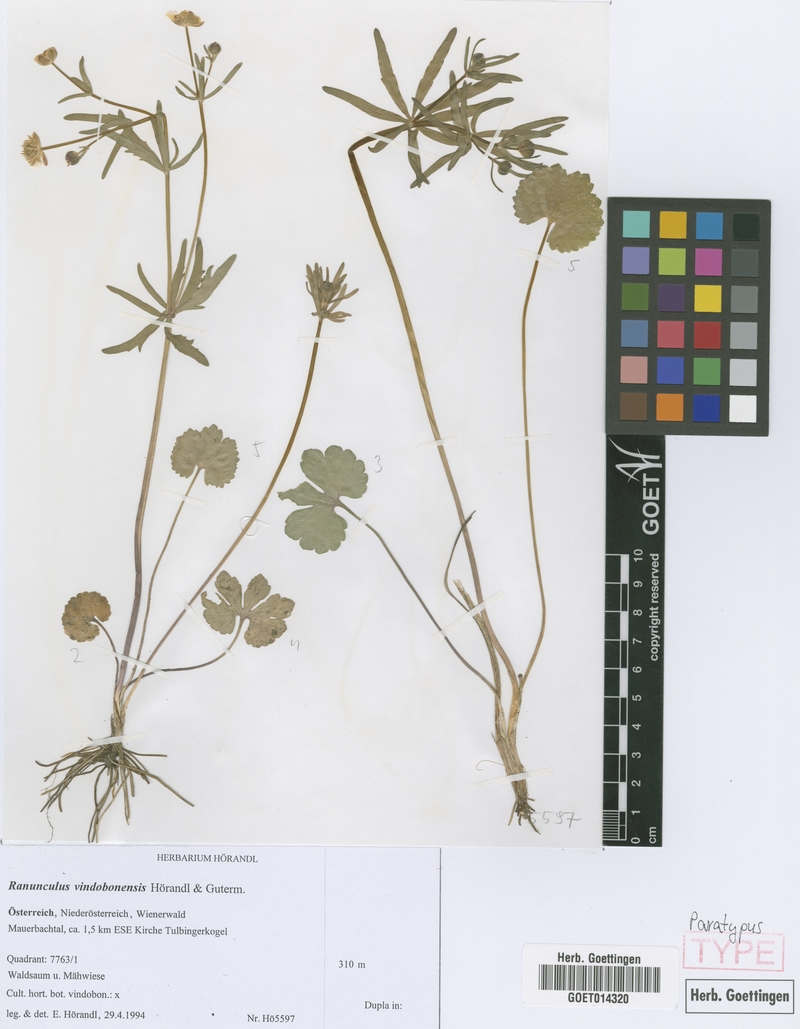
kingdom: Plantae
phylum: Tracheophyta
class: Magnoliopsida
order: Ranunculales
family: Ranunculaceae
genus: Ranunculus
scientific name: Ranunculus vindobonensis
